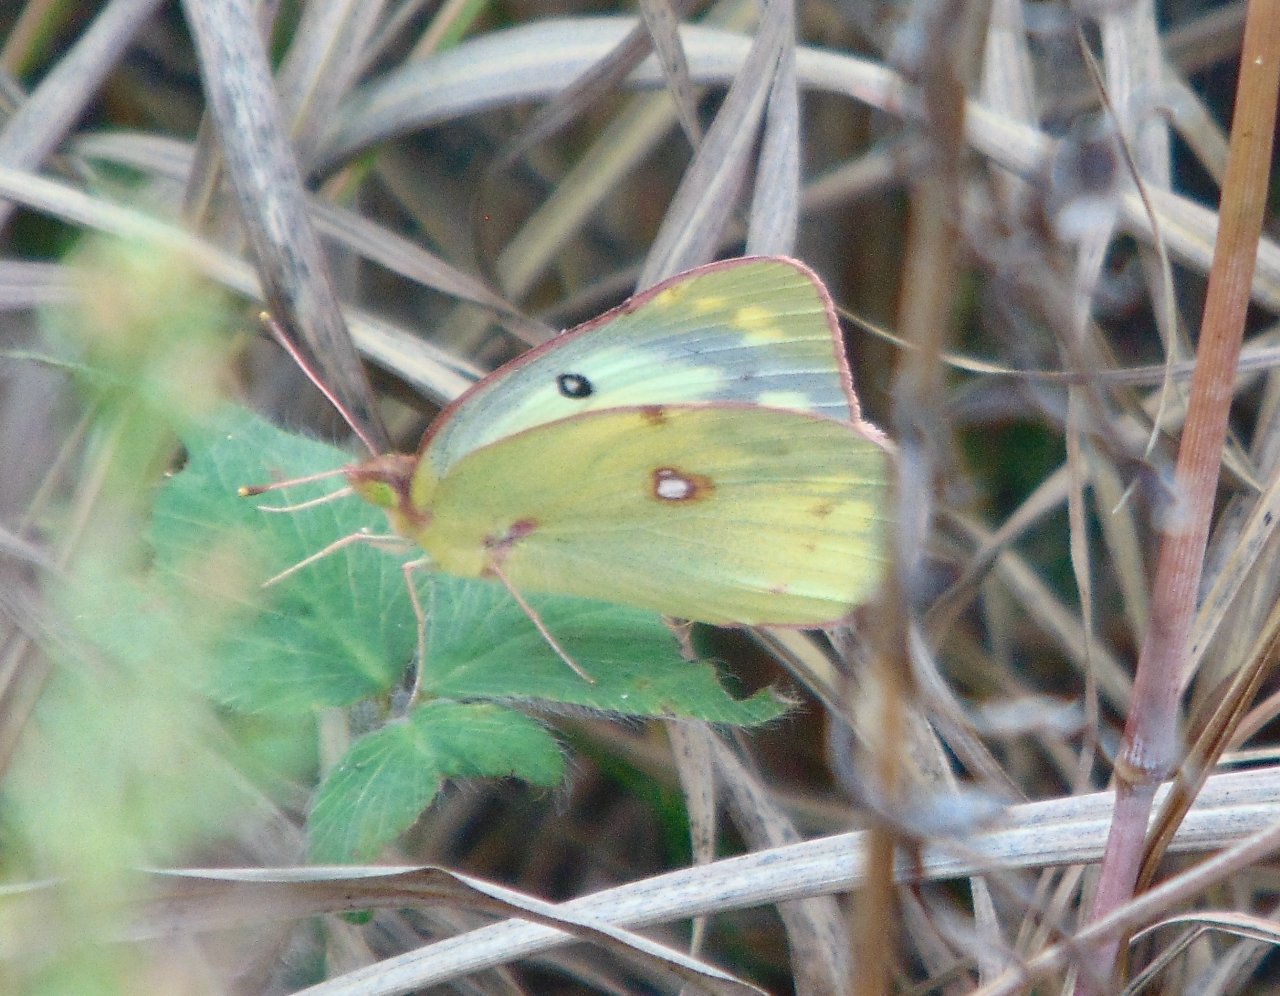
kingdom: Animalia
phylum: Arthropoda
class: Insecta
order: Lepidoptera
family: Pieridae
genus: Colias
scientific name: Colias philodice
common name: Clouded Sulphur
